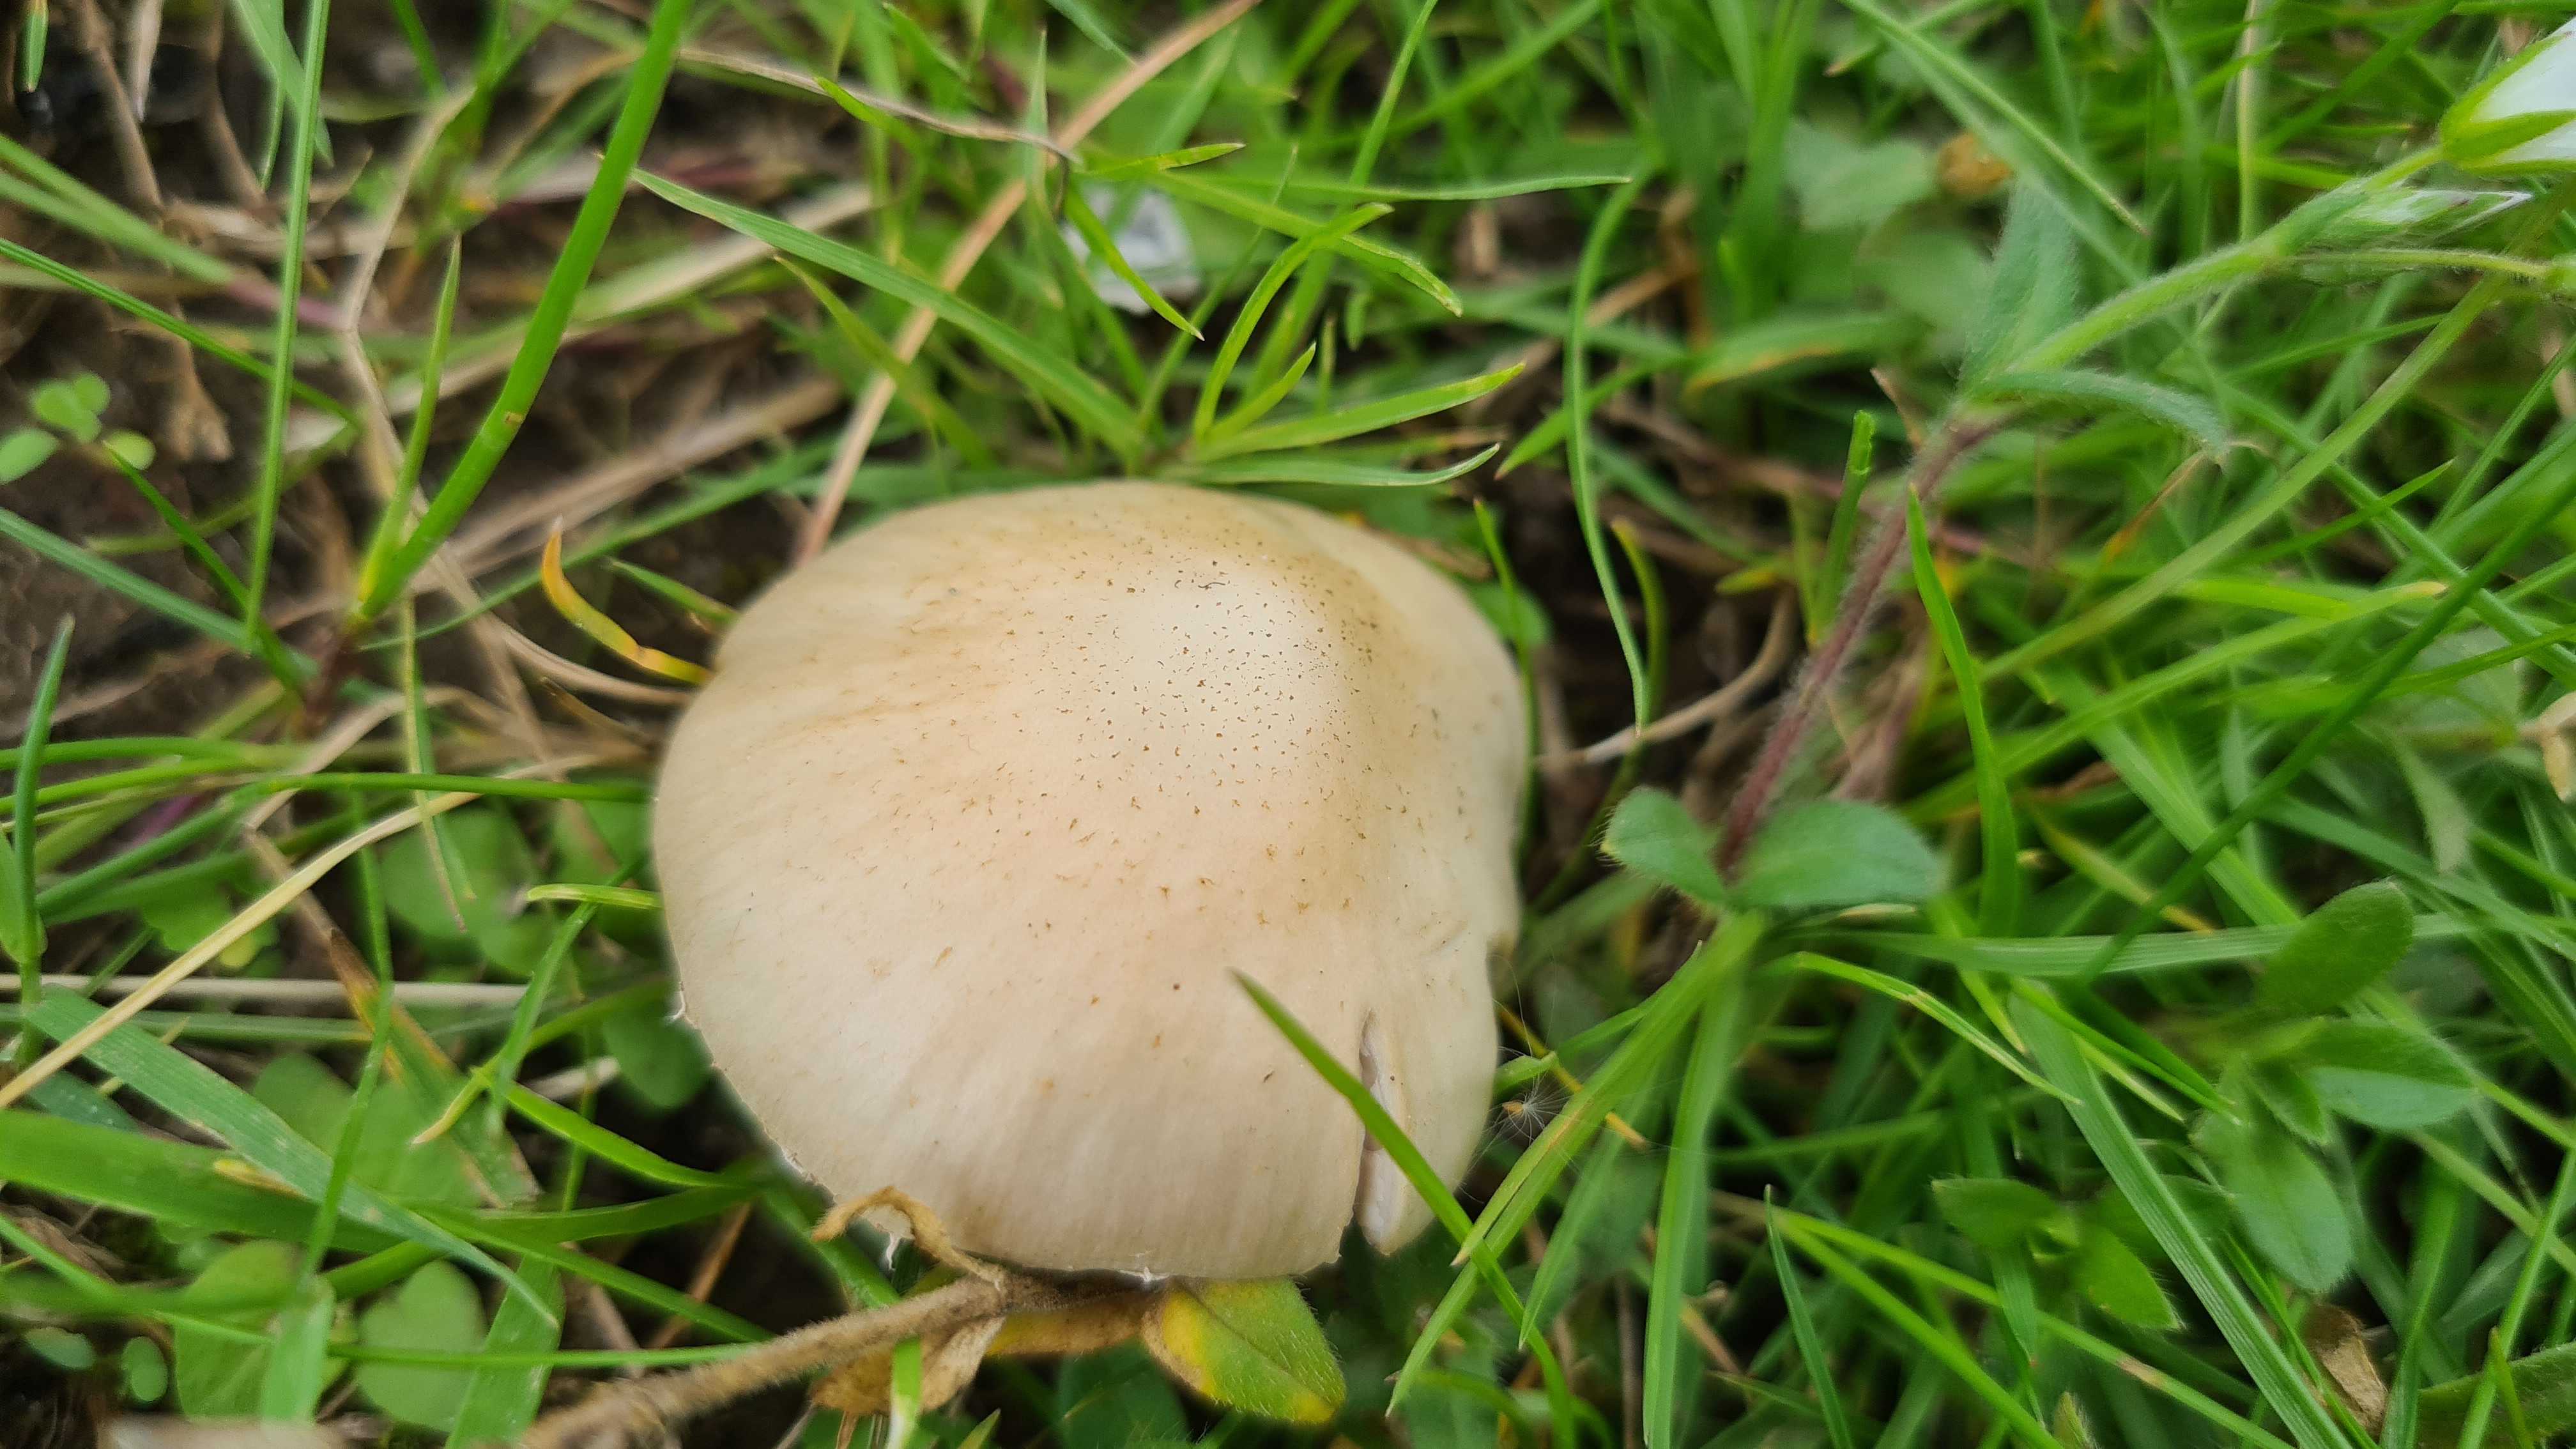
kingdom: Fungi
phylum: Basidiomycota
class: Agaricomycetes
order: Agaricales
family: Psathyrellaceae
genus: Candolleomyces
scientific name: Candolleomyces candolleanus
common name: Candolles mørkhat
